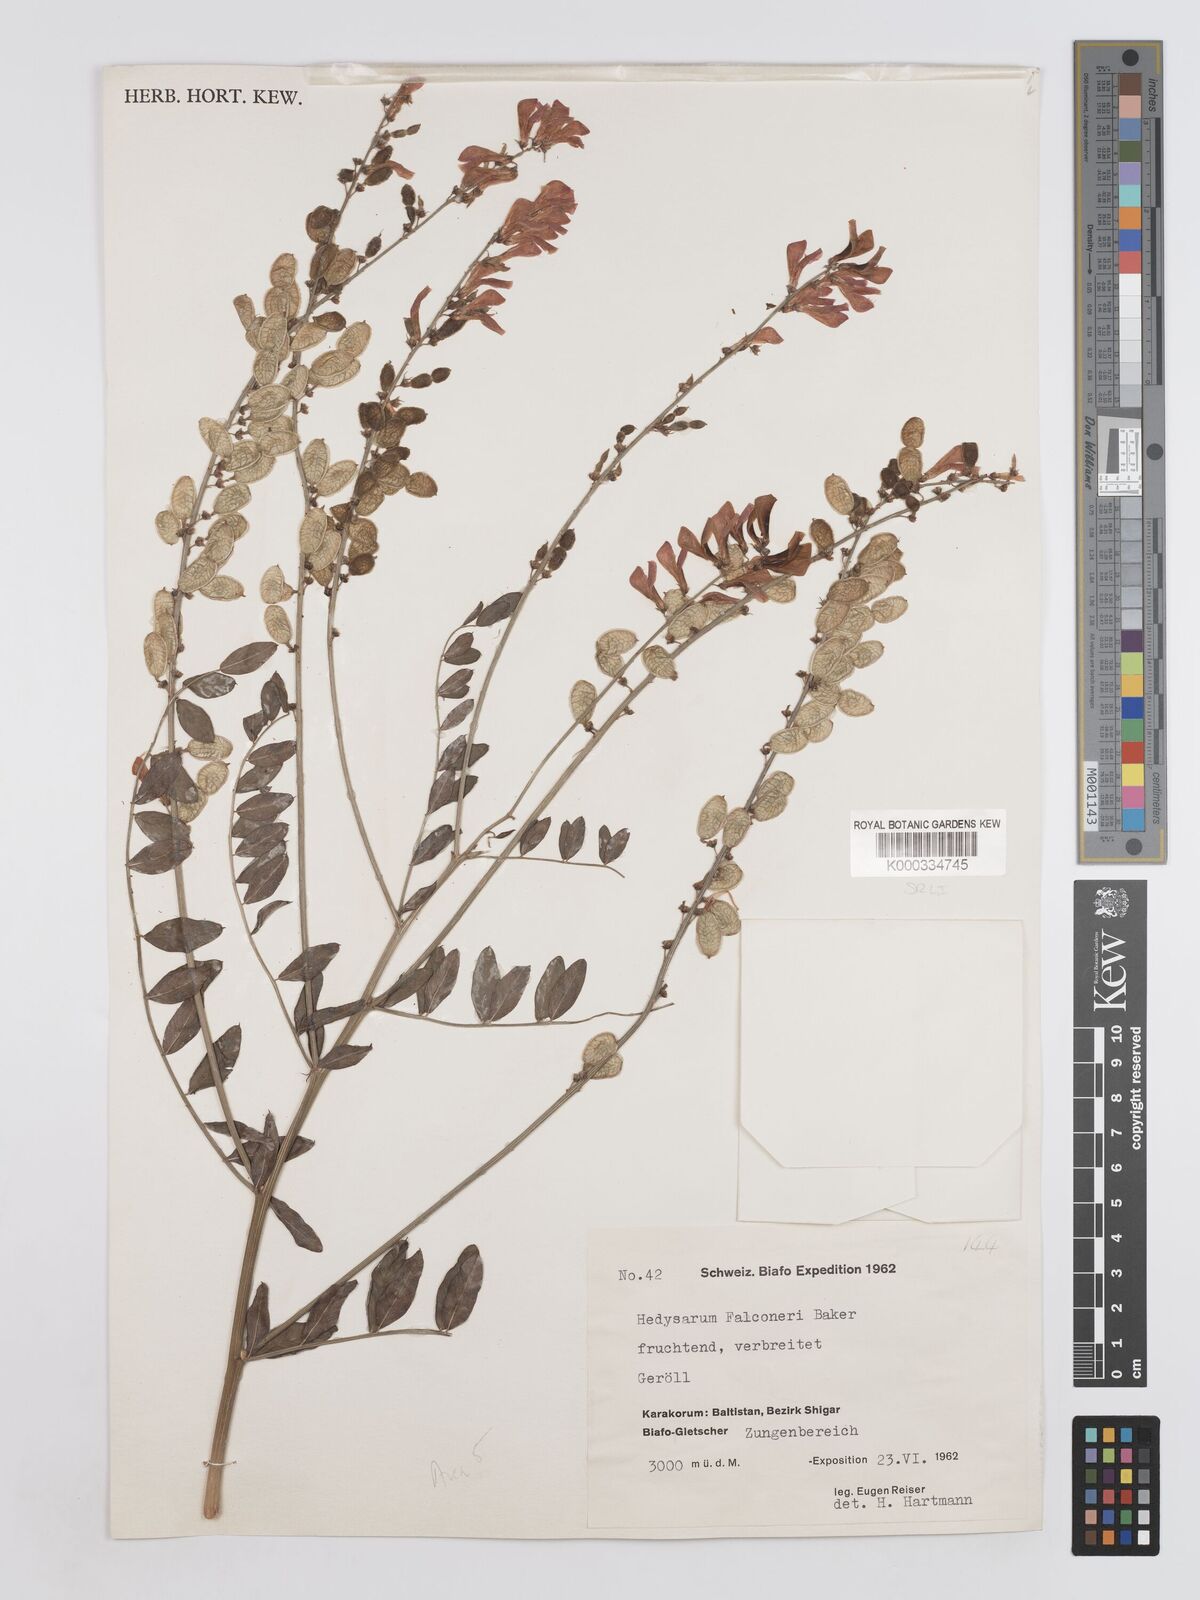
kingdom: Plantae
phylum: Tracheophyta
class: Magnoliopsida
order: Fabales
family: Fabaceae
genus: Hedysarum
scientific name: Hedysarum falconeri
